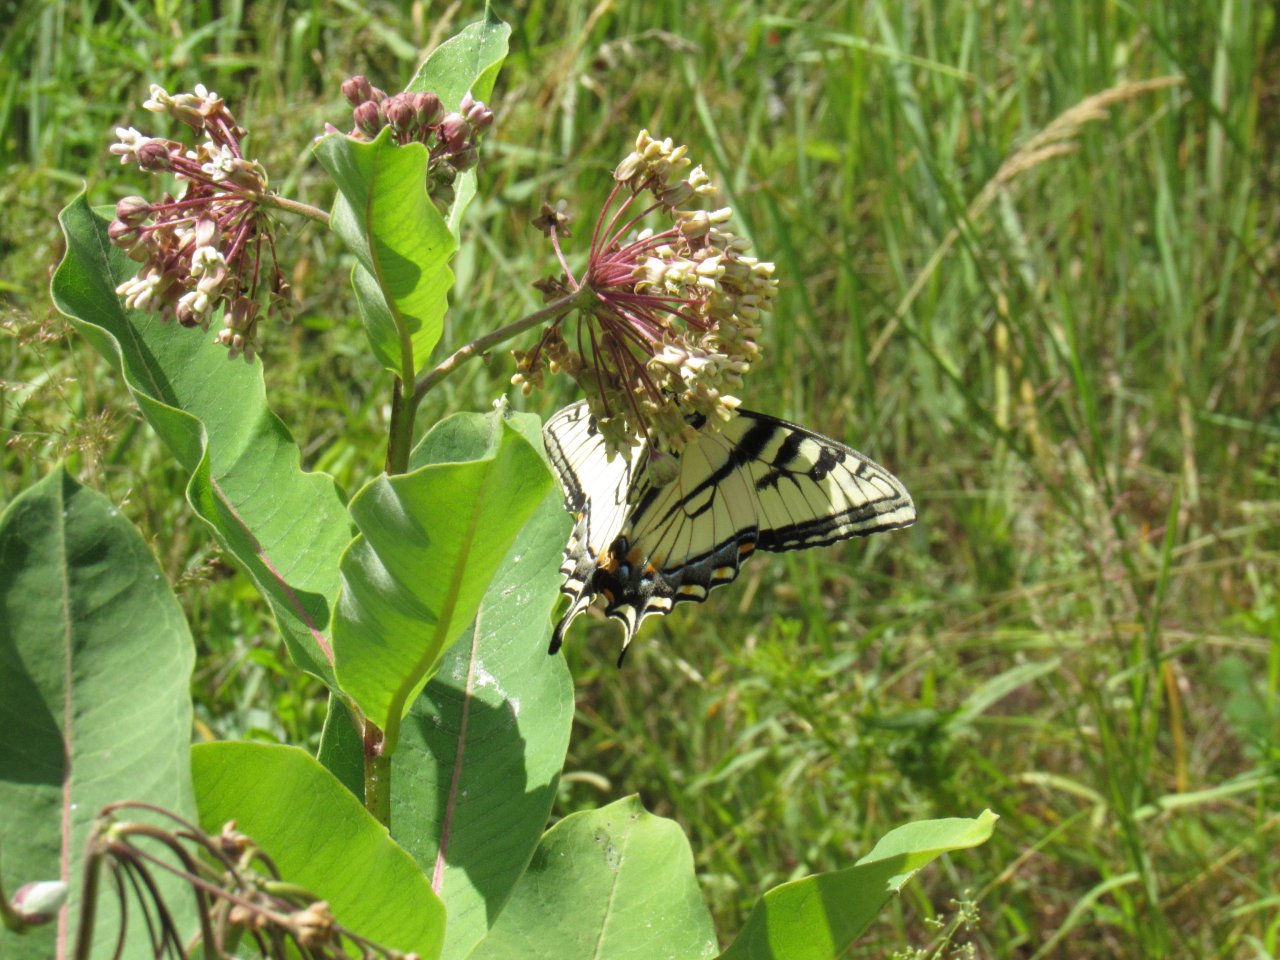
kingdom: Animalia
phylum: Arthropoda
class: Insecta
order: Lepidoptera
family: Papilionidae
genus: Pterourus
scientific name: Pterourus
